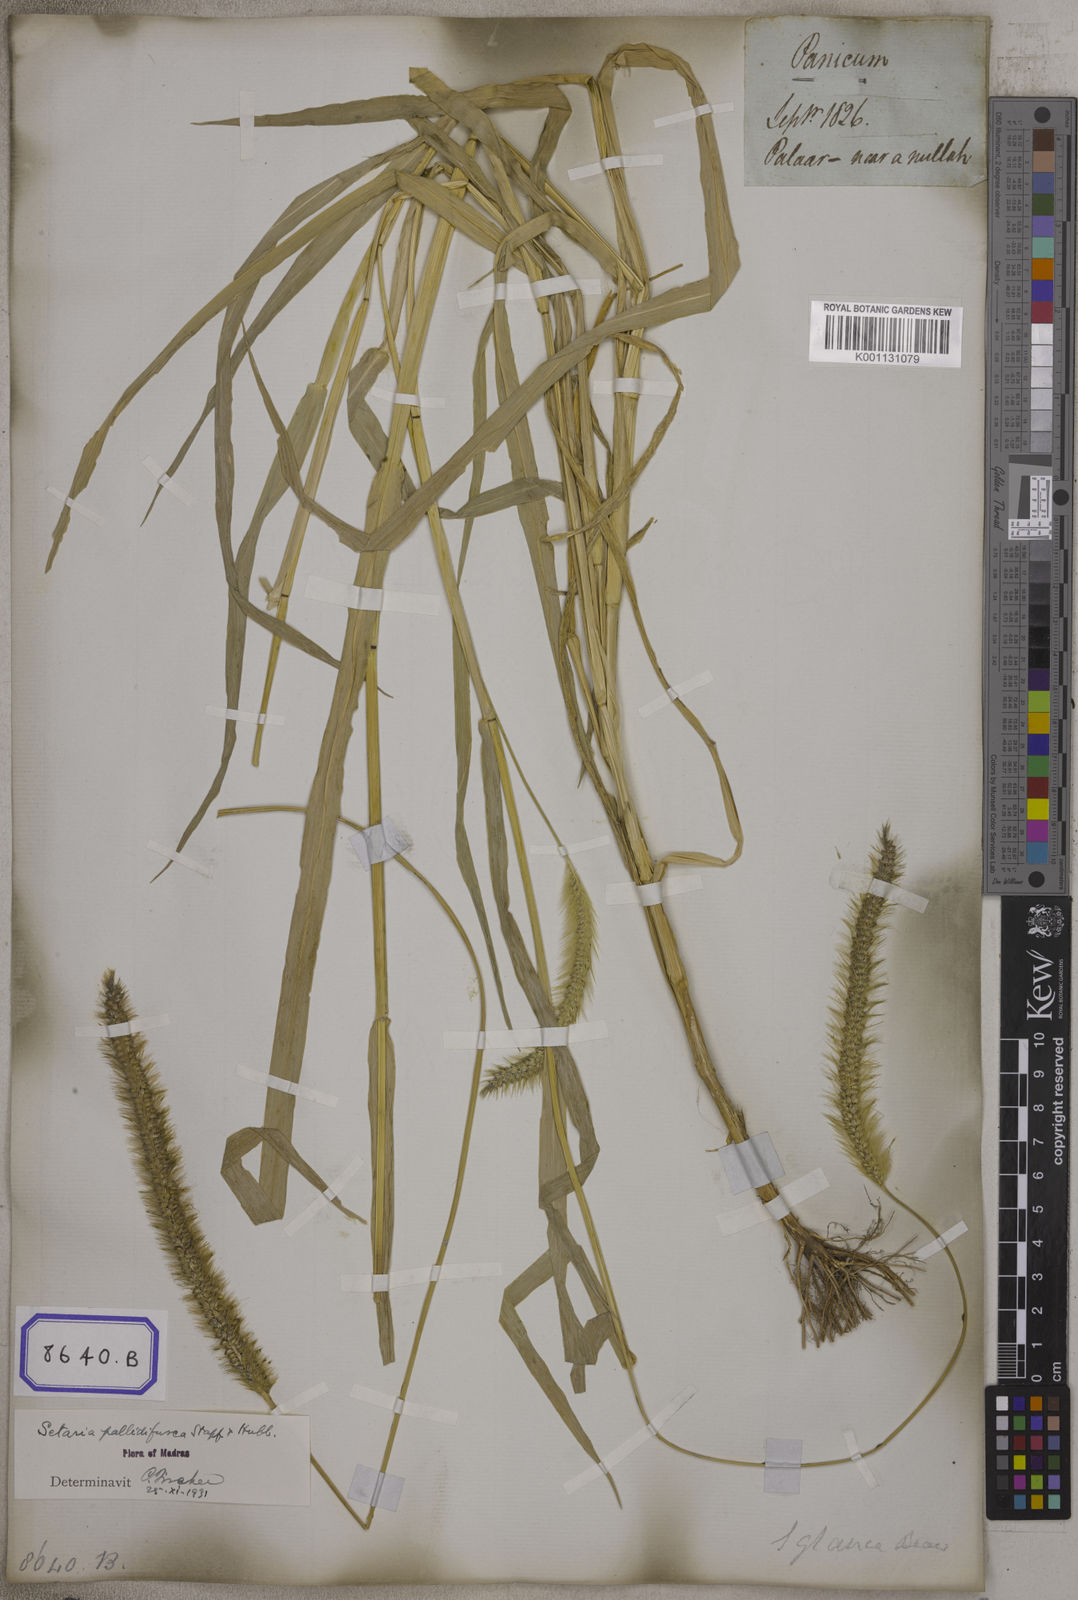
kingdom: Plantae
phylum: Tracheophyta
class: Liliopsida
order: Poales
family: Poaceae
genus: Setaria
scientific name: Setaria pumila
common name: Yellow bristle-grass
